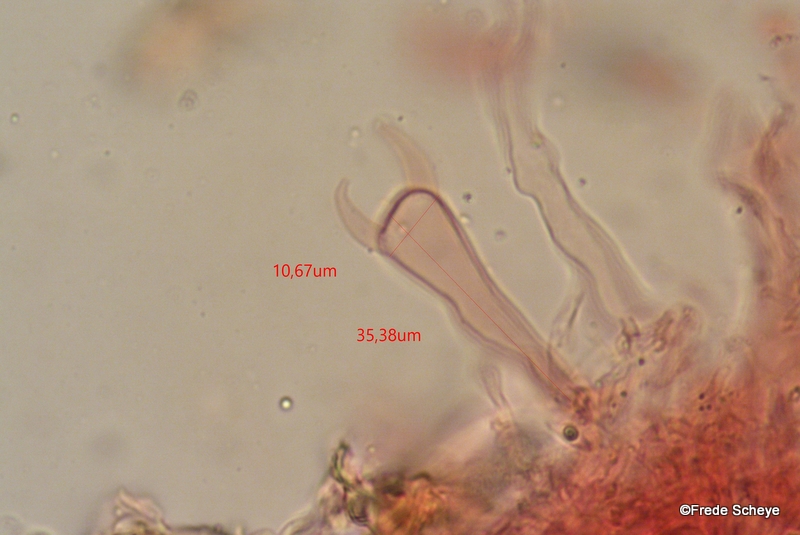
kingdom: Fungi
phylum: Basidiomycota
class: Agaricomycetes
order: Corticiales
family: Vuilleminiaceae
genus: Vuilleminia
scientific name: Vuilleminia comedens
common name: almindelig barksprænger
